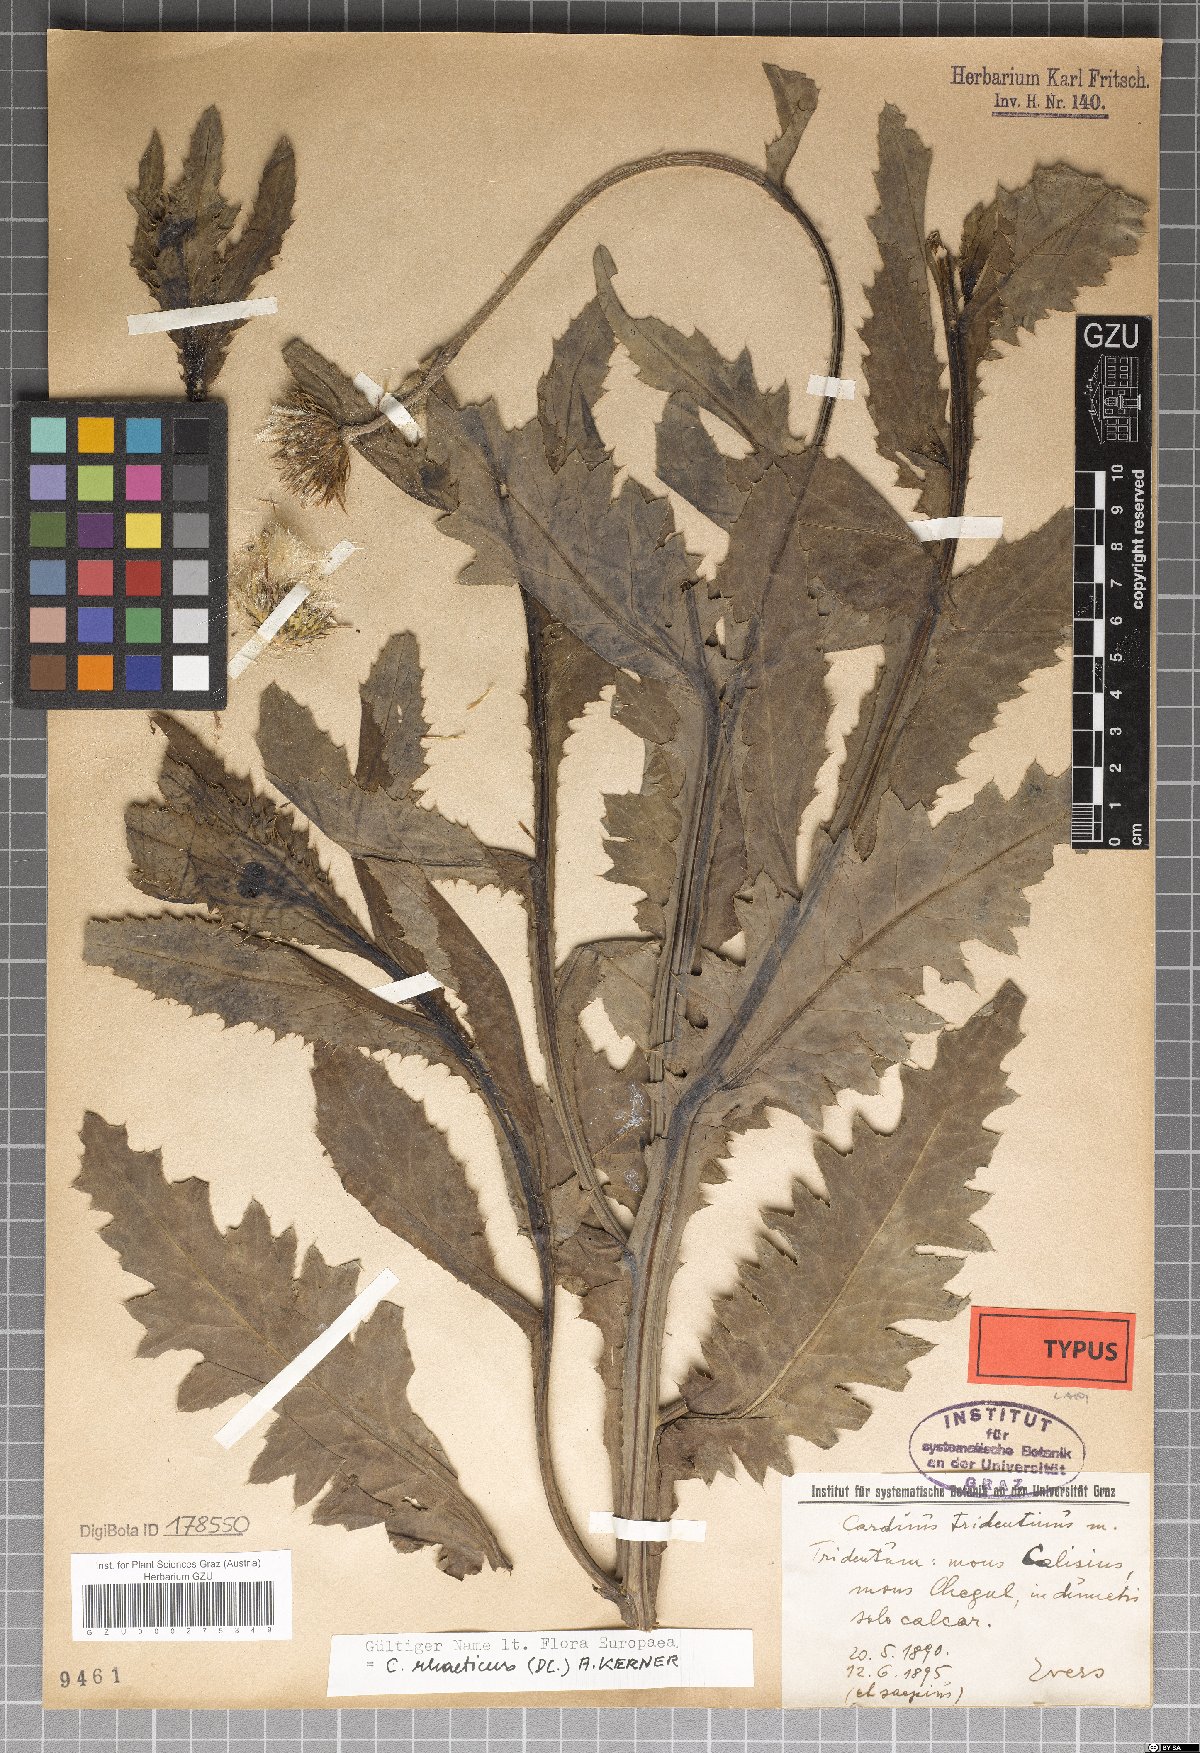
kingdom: Plantae
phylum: Tracheophyta
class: Magnoliopsida
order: Asterales
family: Asteraceae
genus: Carduus
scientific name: Carduus defloratus
